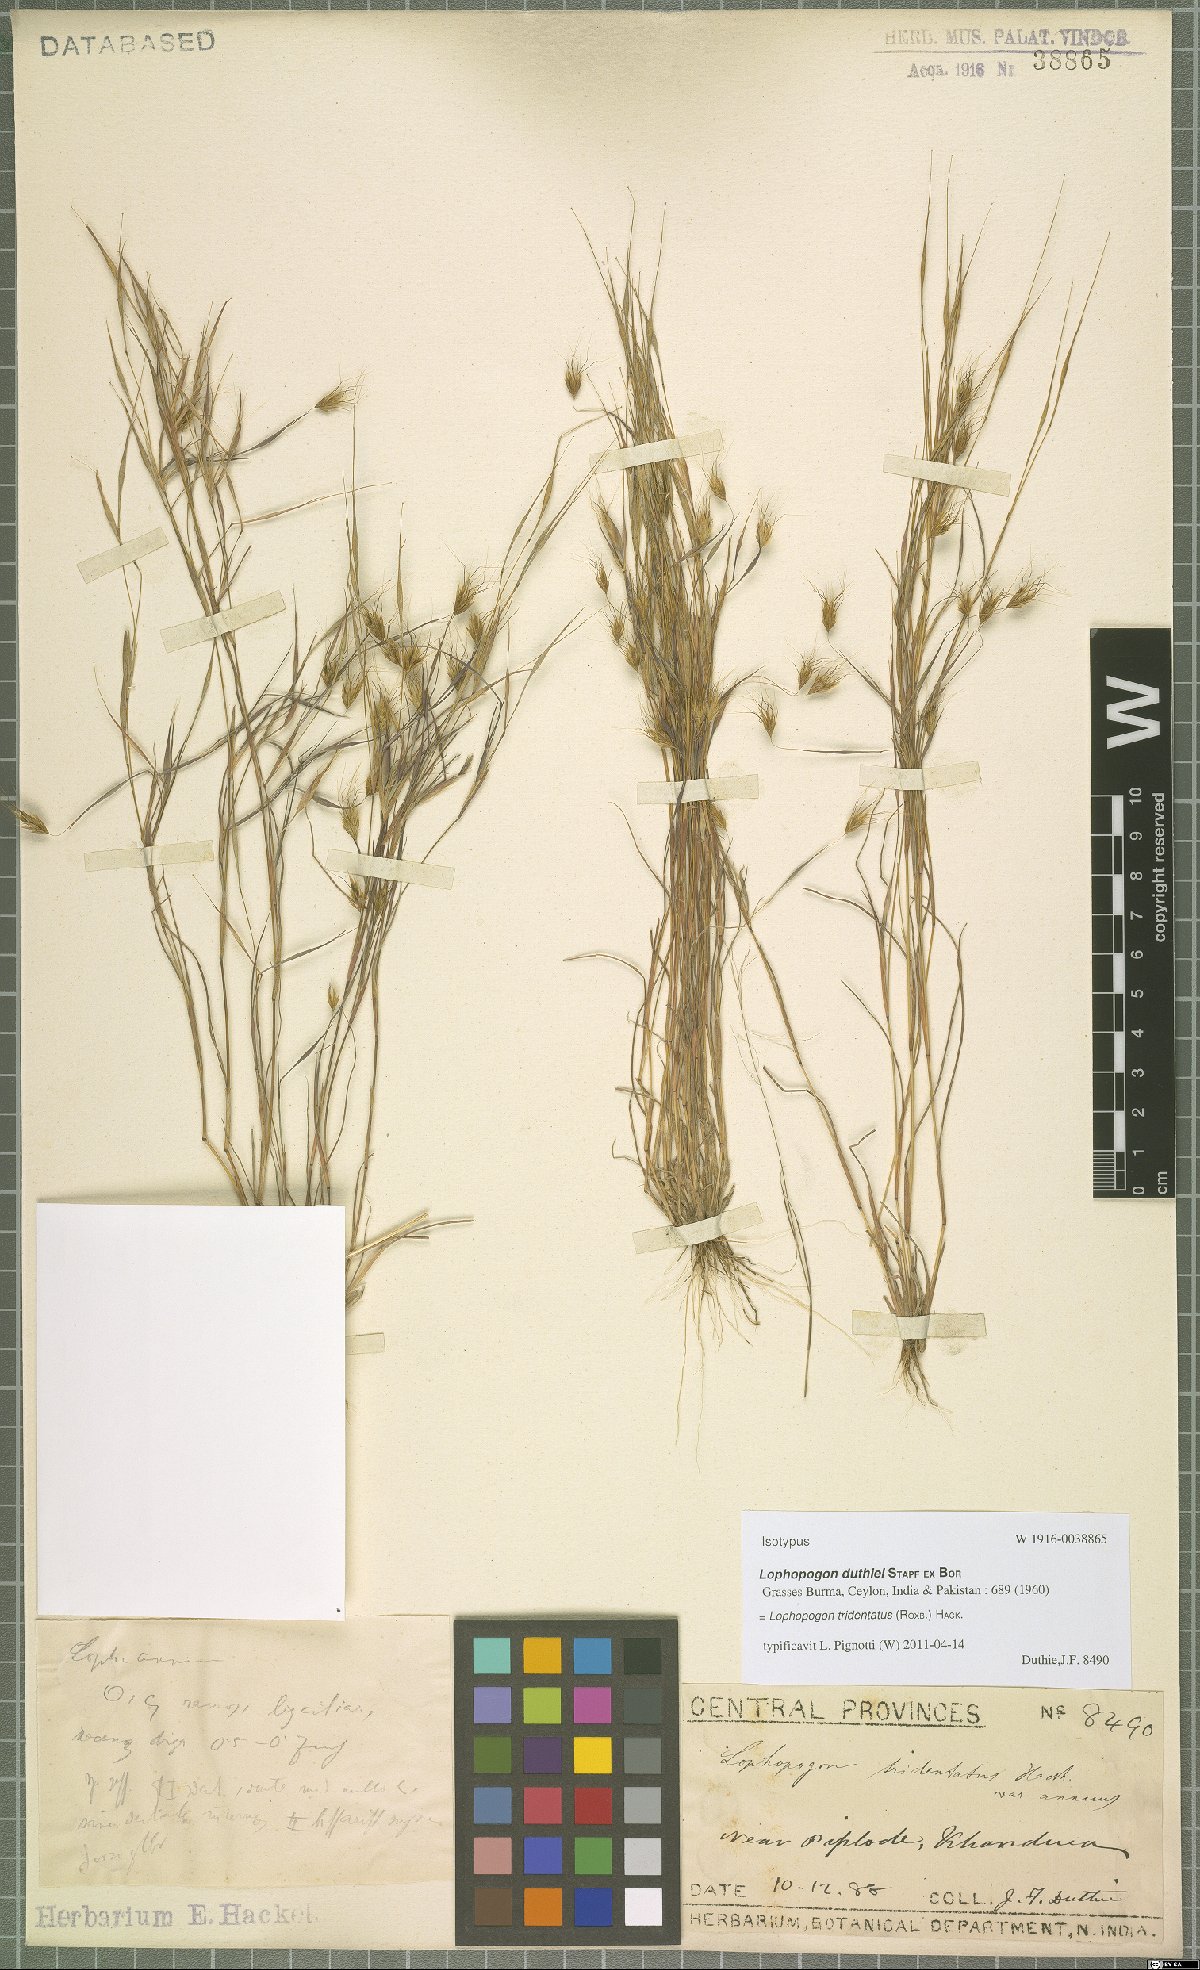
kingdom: Plantae
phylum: Tracheophyta
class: Liliopsida
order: Poales
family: Poaceae
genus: Lophopogon
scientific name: Lophopogon tridentatus
